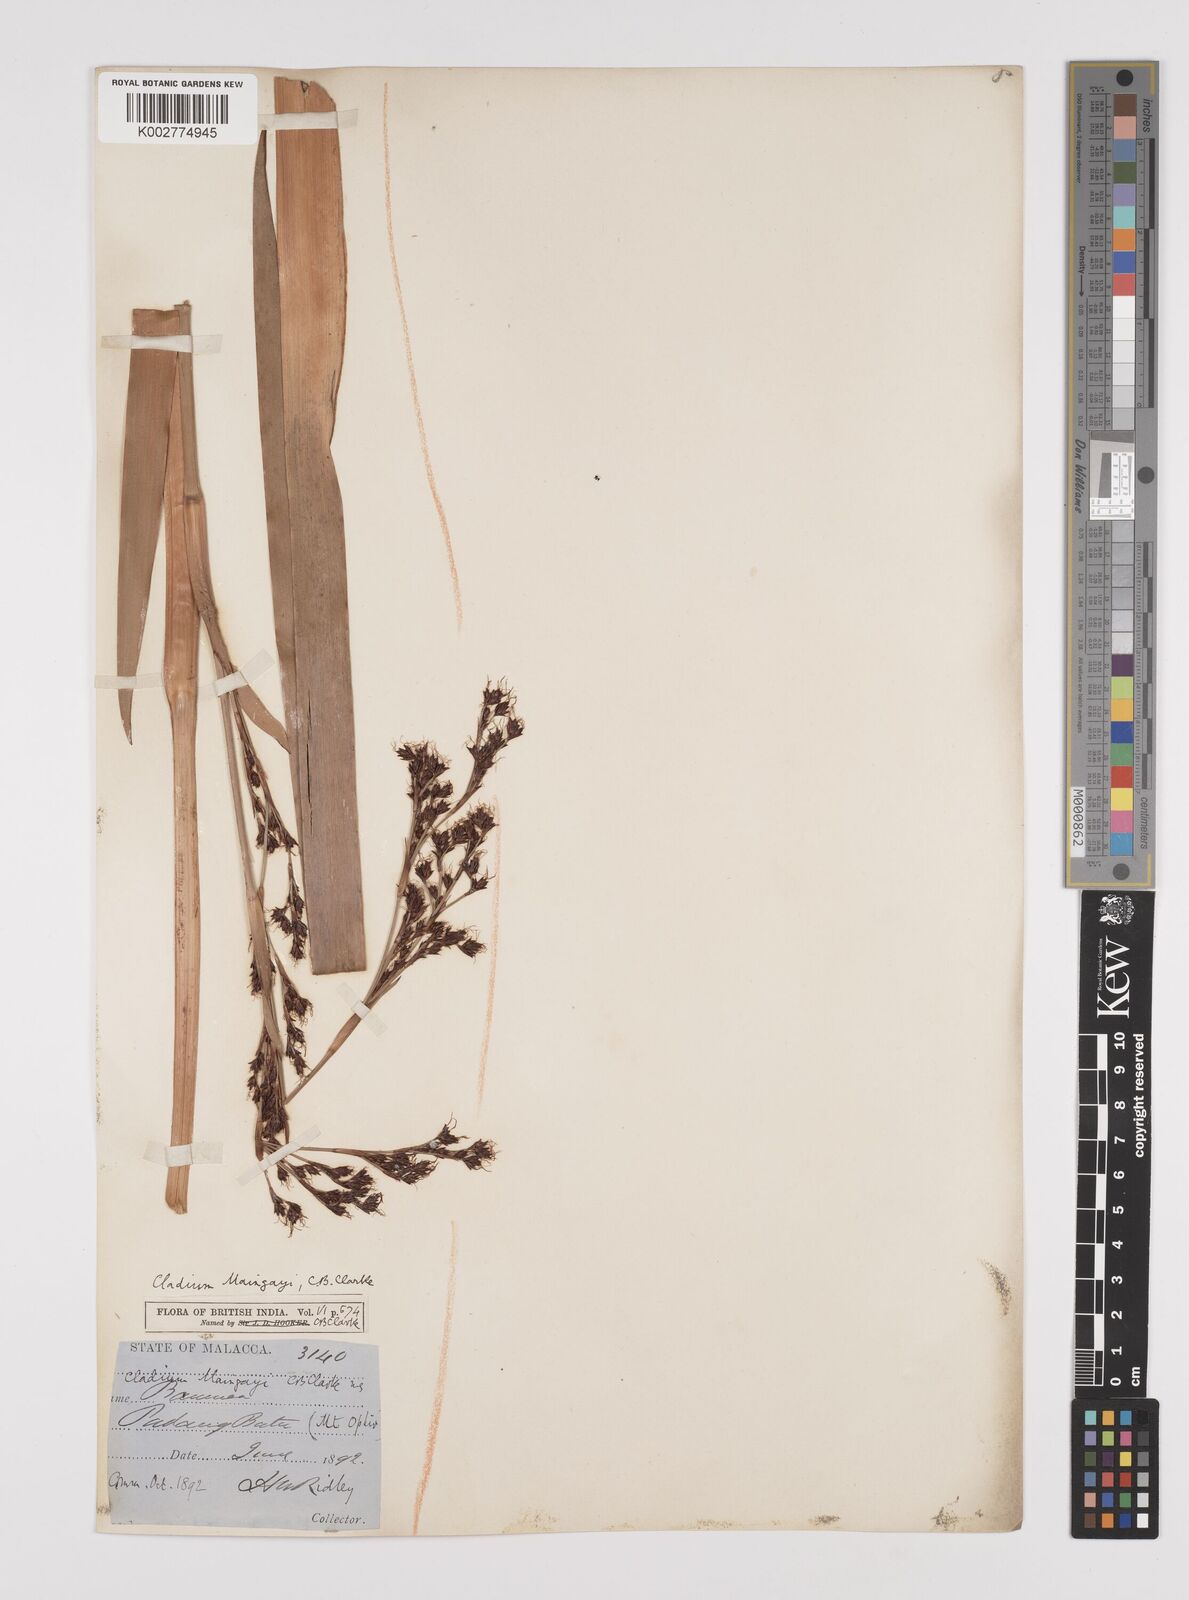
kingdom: Plantae
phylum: Tracheophyta
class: Liliopsida
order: Poales
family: Cyperaceae
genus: Machaerina
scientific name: Machaerina maingayi
